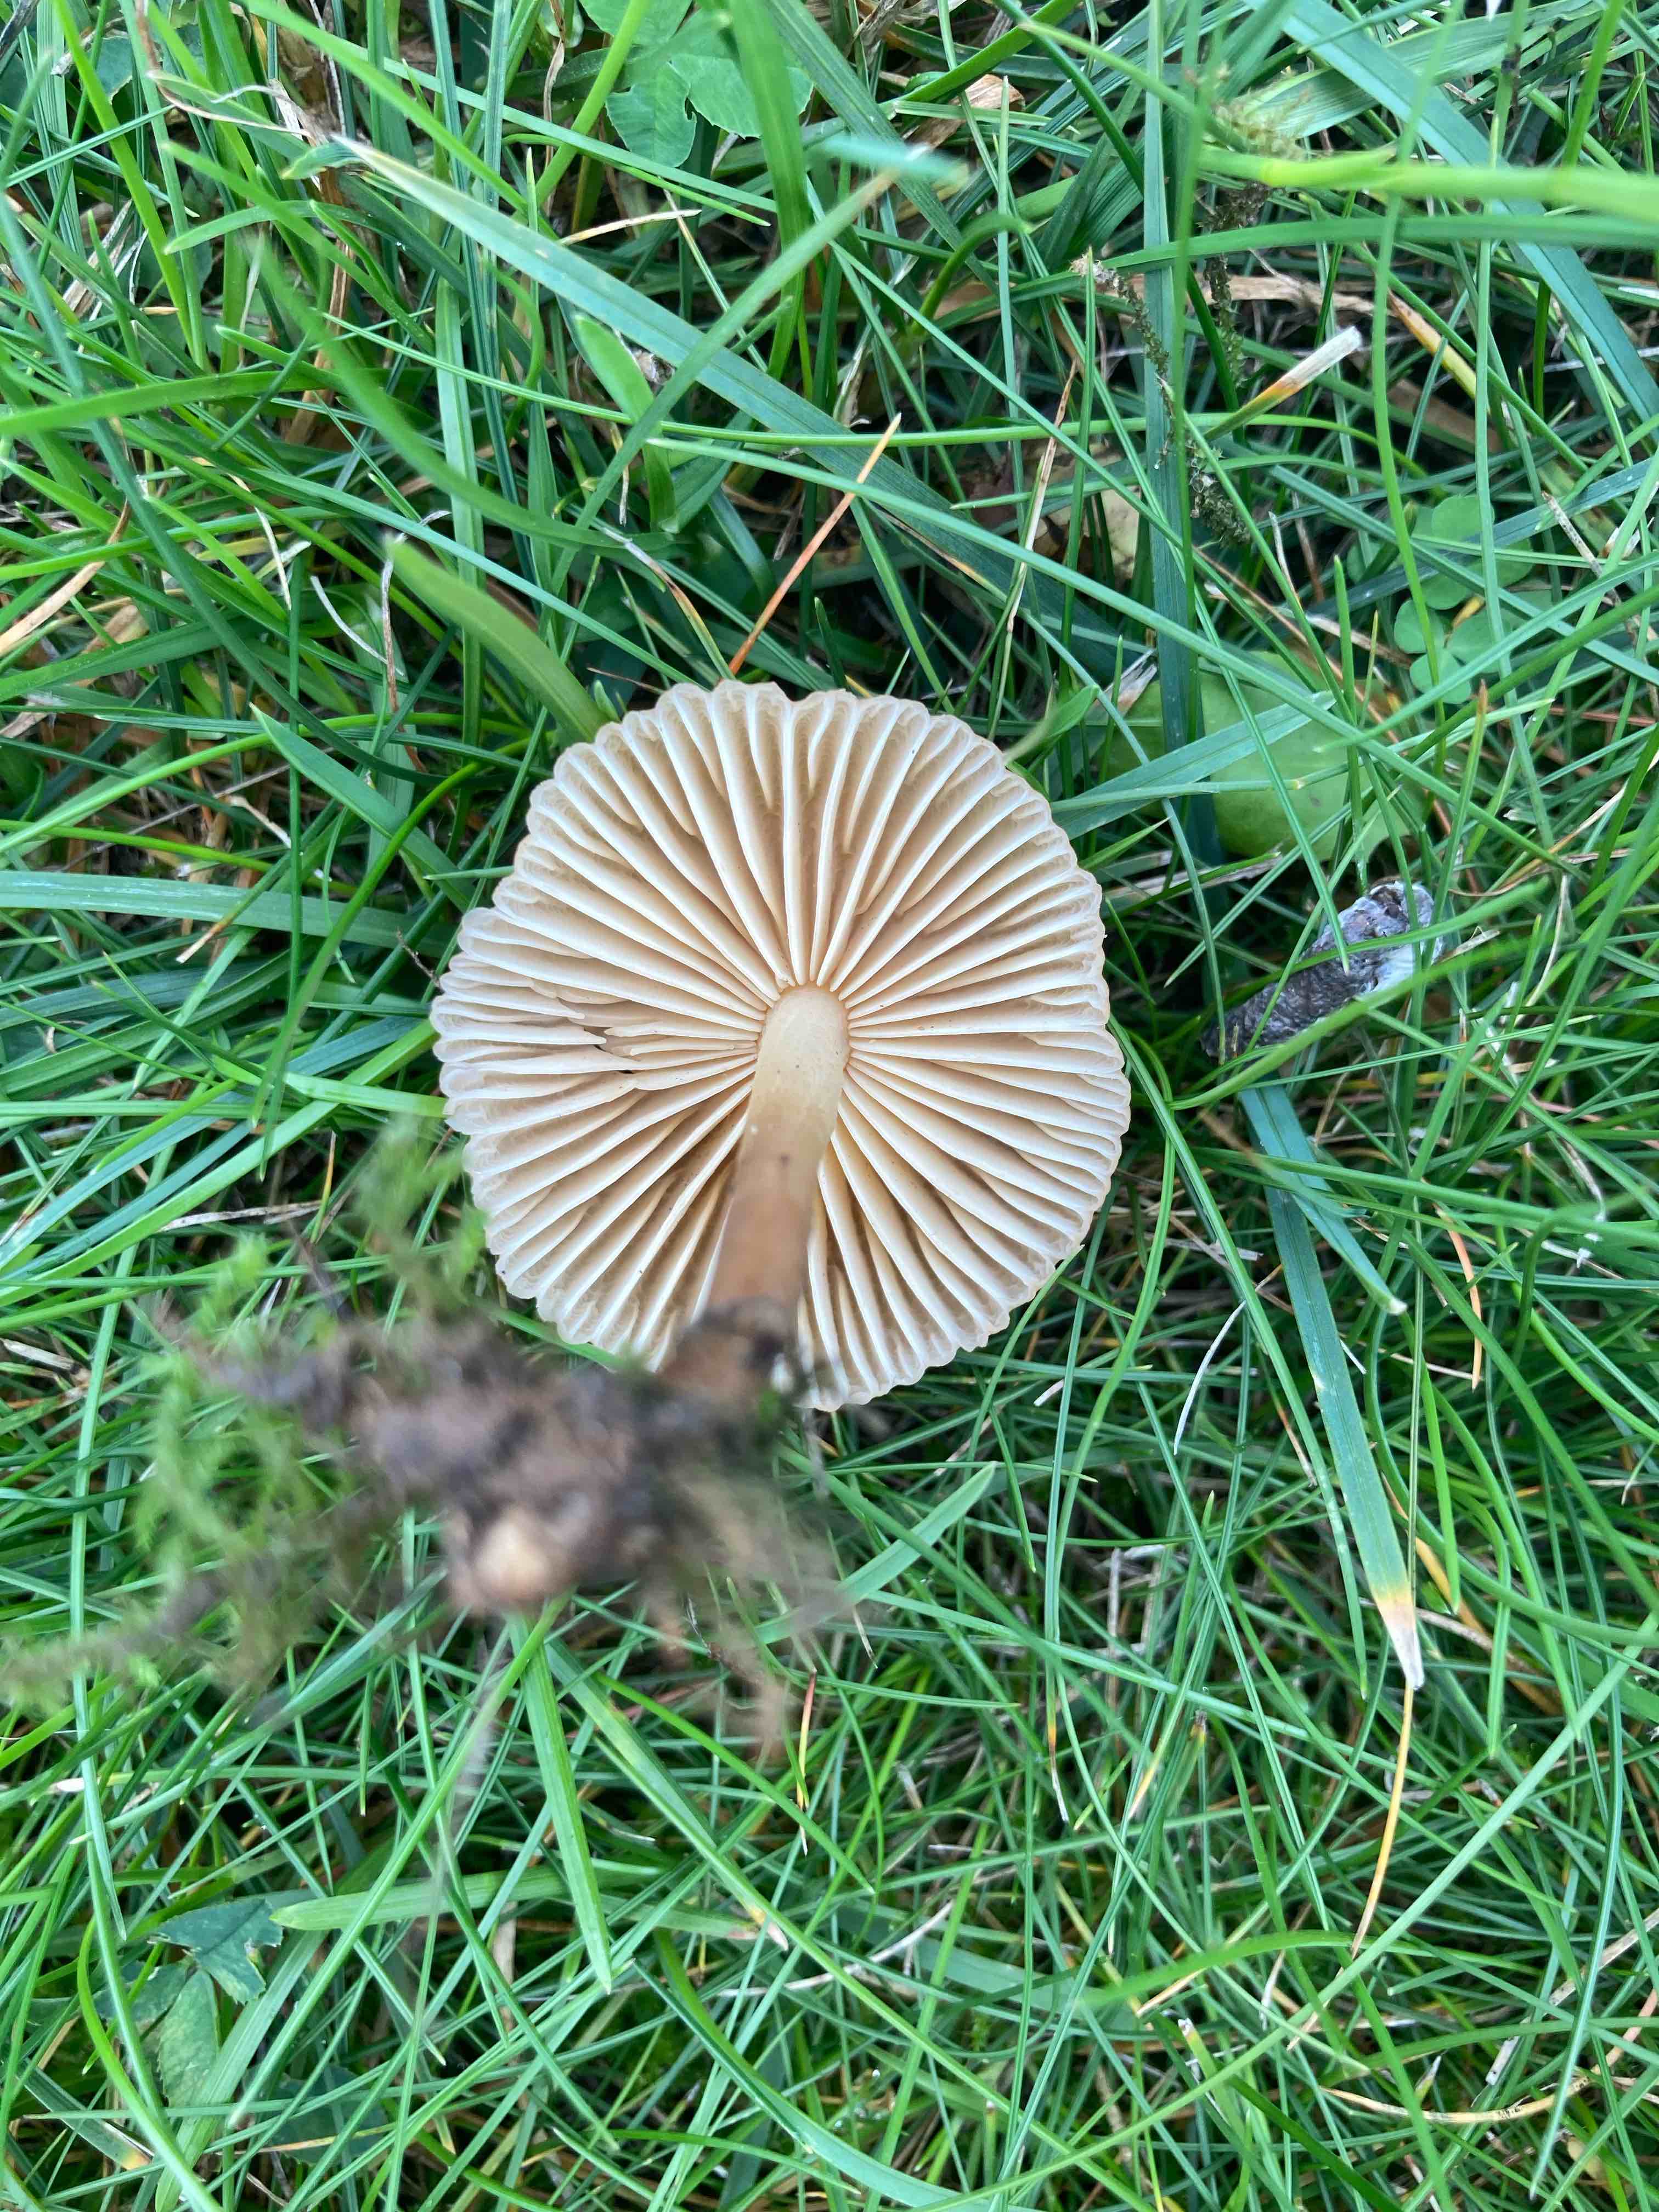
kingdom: Fungi
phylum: Basidiomycota
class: Agaricomycetes
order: Agaricales
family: Marasmiaceae
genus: Marasmius
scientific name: Marasmius oreades
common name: elledans-bruskhat
